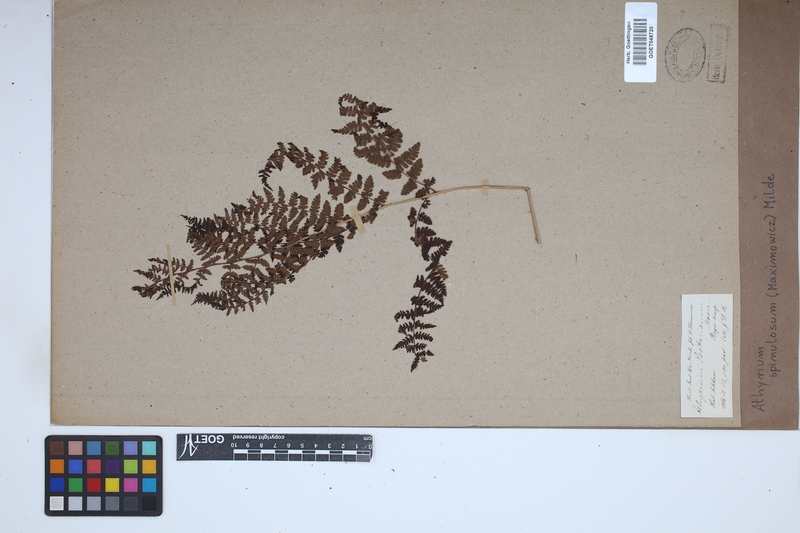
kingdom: Plantae
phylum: Tracheophyta
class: Polypodiopsida
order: Polypodiales
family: Athyriaceae
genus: Athyrium
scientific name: Athyrium spinulosum
